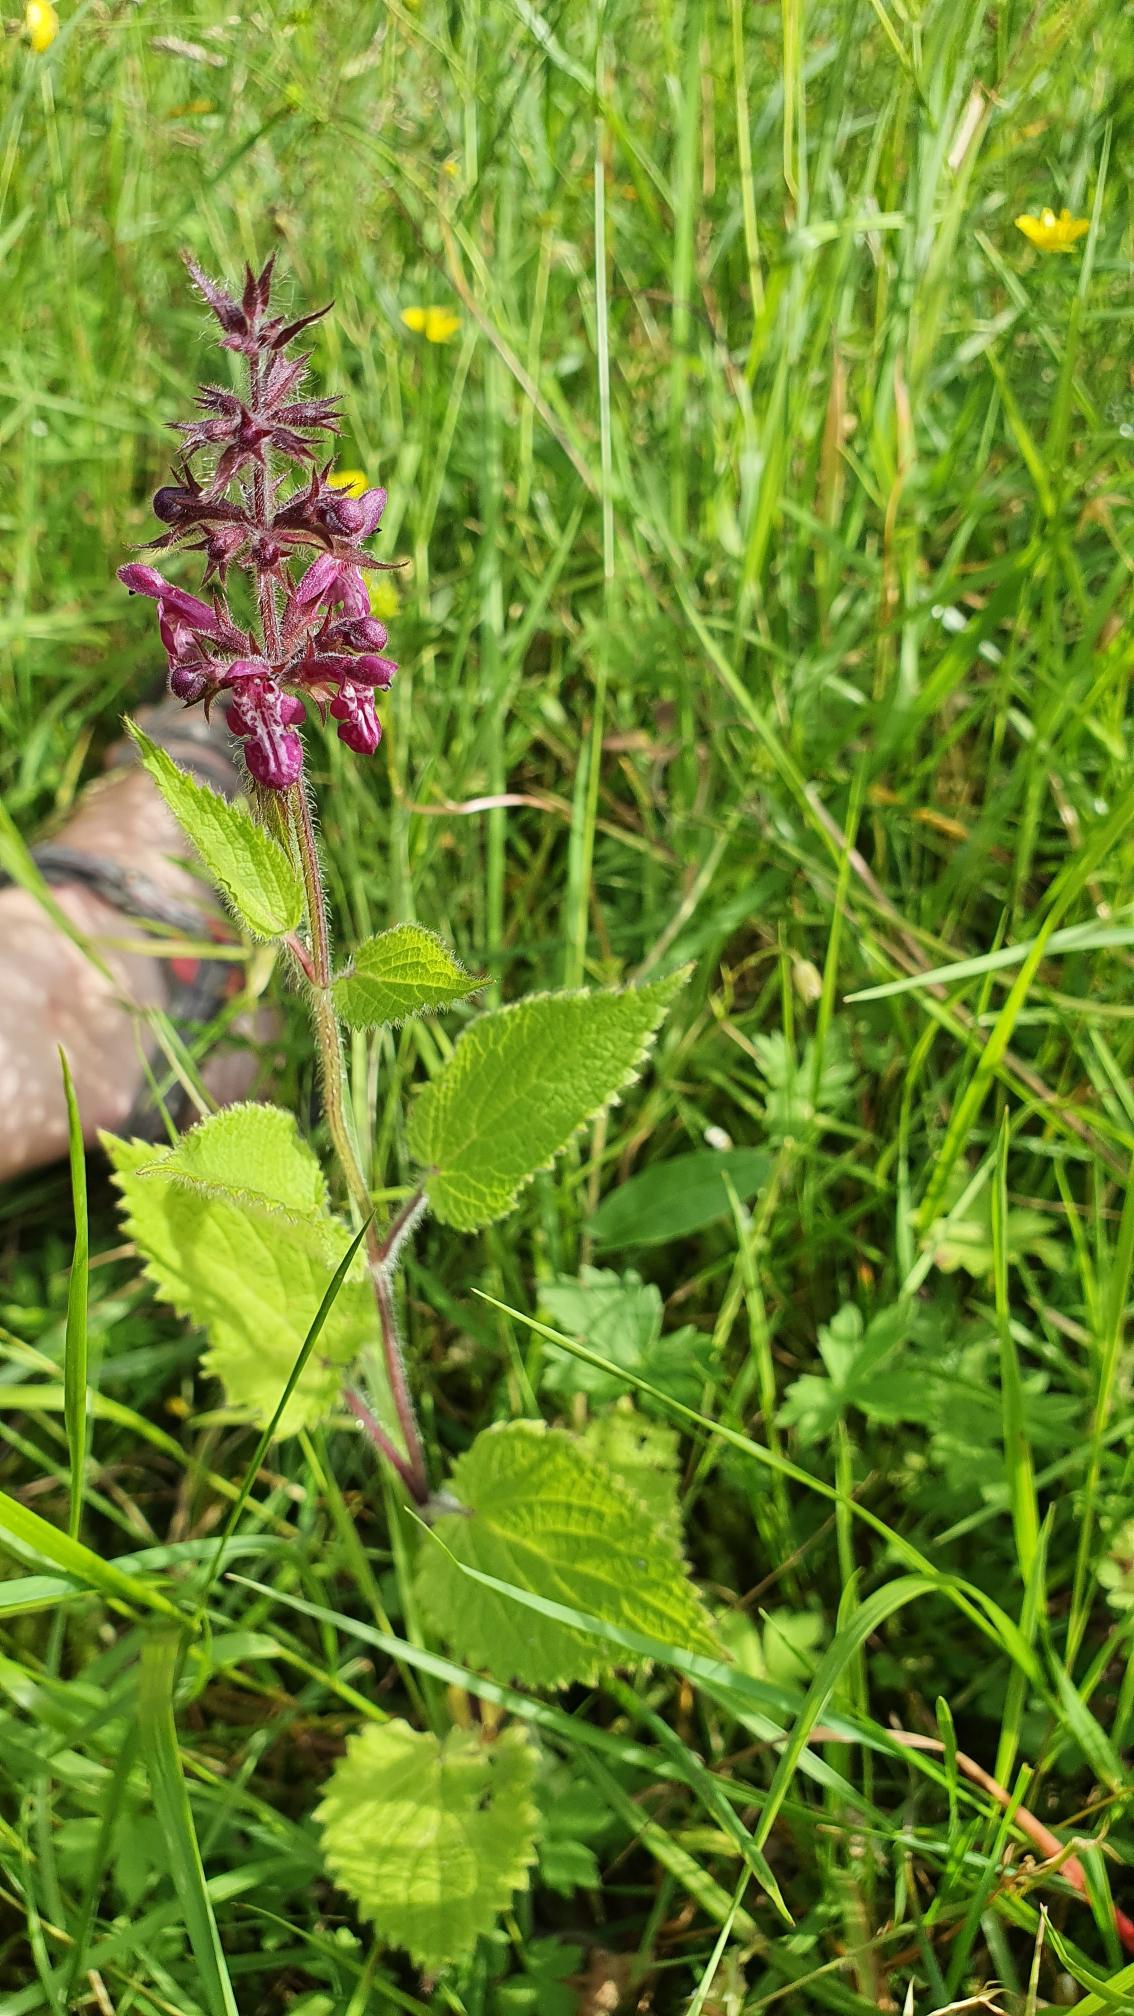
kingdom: Plantae
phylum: Tracheophyta
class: Magnoliopsida
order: Lamiales
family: Lamiaceae
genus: Stachys
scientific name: Stachys sylvatica
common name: Skov-galtetand
